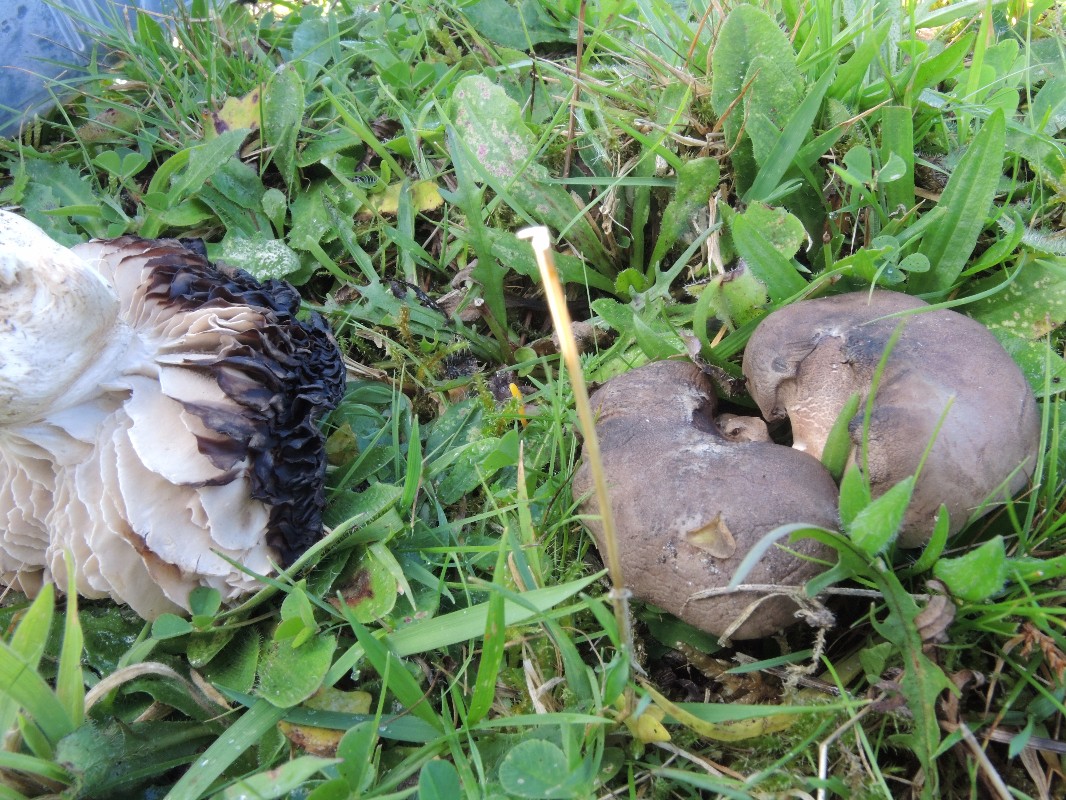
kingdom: Fungi
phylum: Basidiomycota
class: Agaricomycetes
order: Agaricales
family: Tricholomataceae
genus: Pseudotricholoma
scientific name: Pseudotricholoma metapodium
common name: rødmende alfehat
